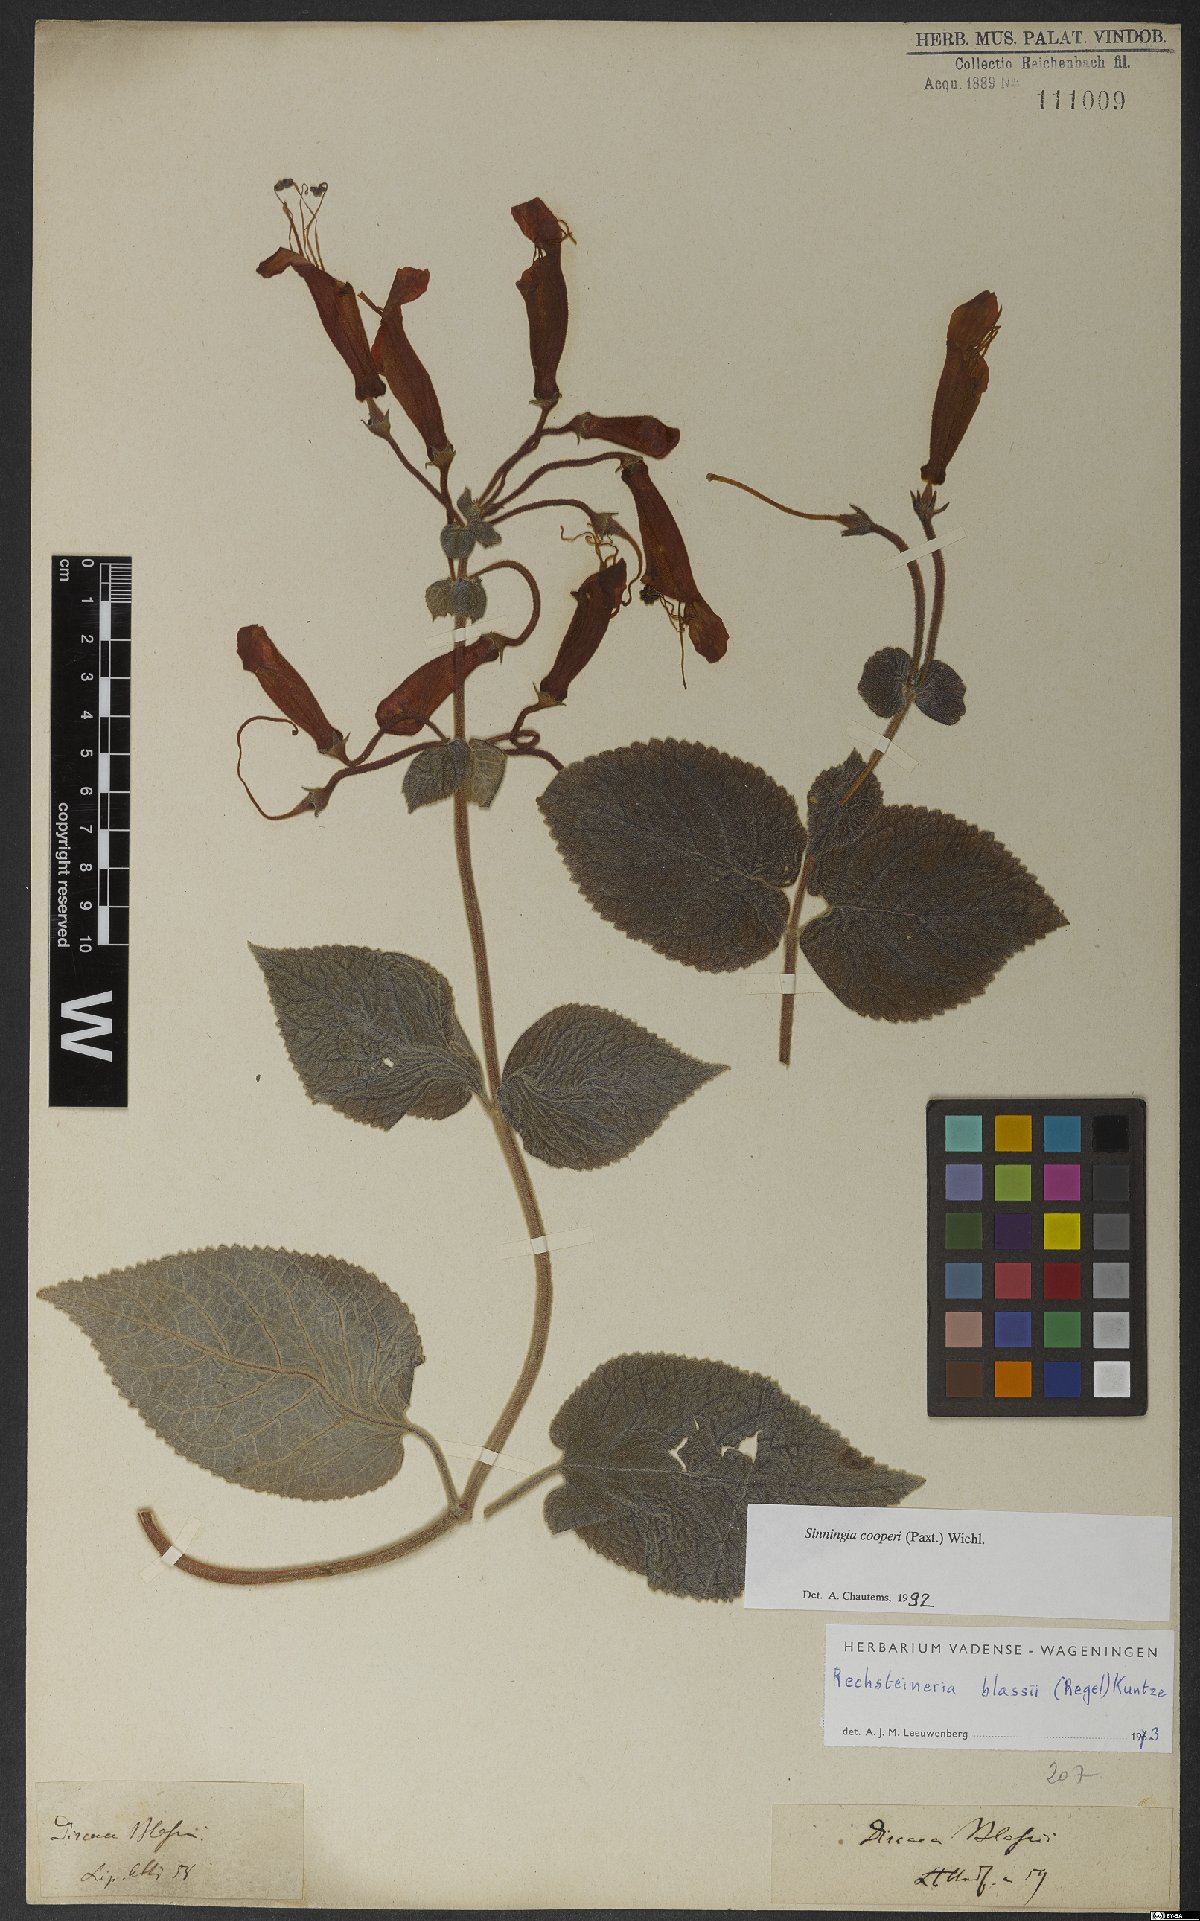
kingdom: Plantae
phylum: Tracheophyta
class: Magnoliopsida
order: Lamiales
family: Gesneriaceae
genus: Sinningia
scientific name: Sinningia cooperi
